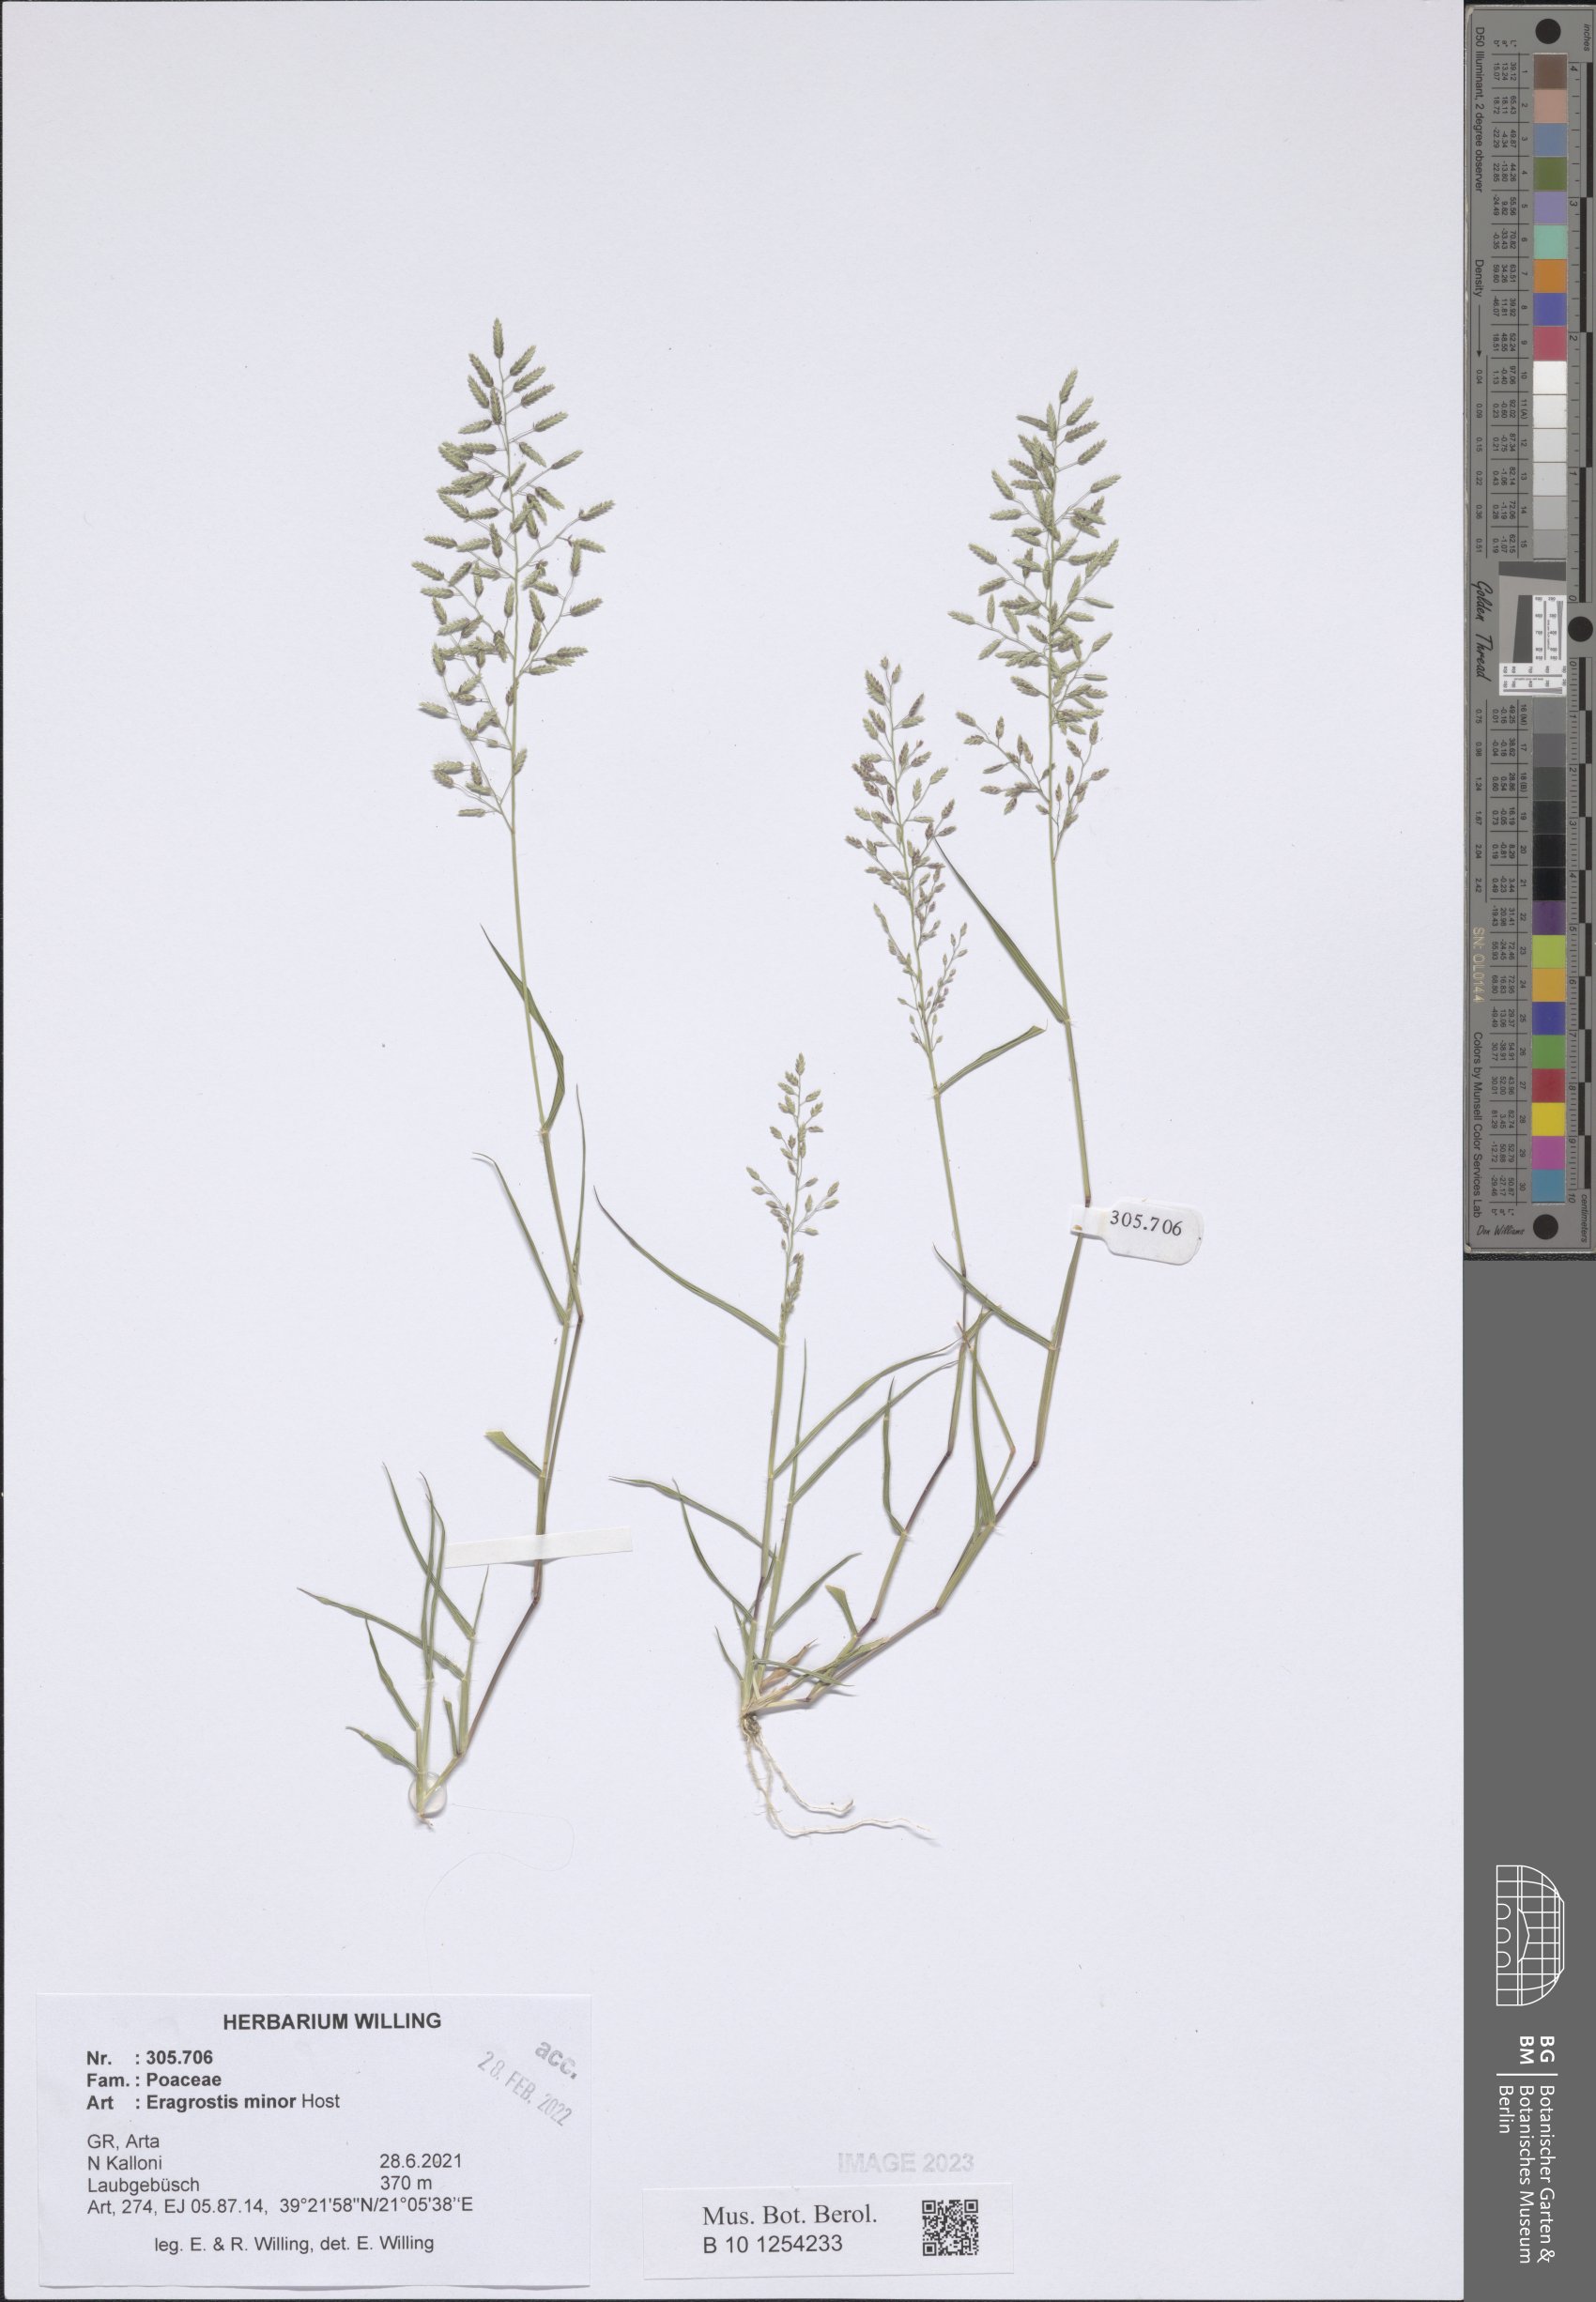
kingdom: Plantae
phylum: Tracheophyta
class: Liliopsida
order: Poales
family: Poaceae
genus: Eragrostis
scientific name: Eragrostis minor
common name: Small love-grass
